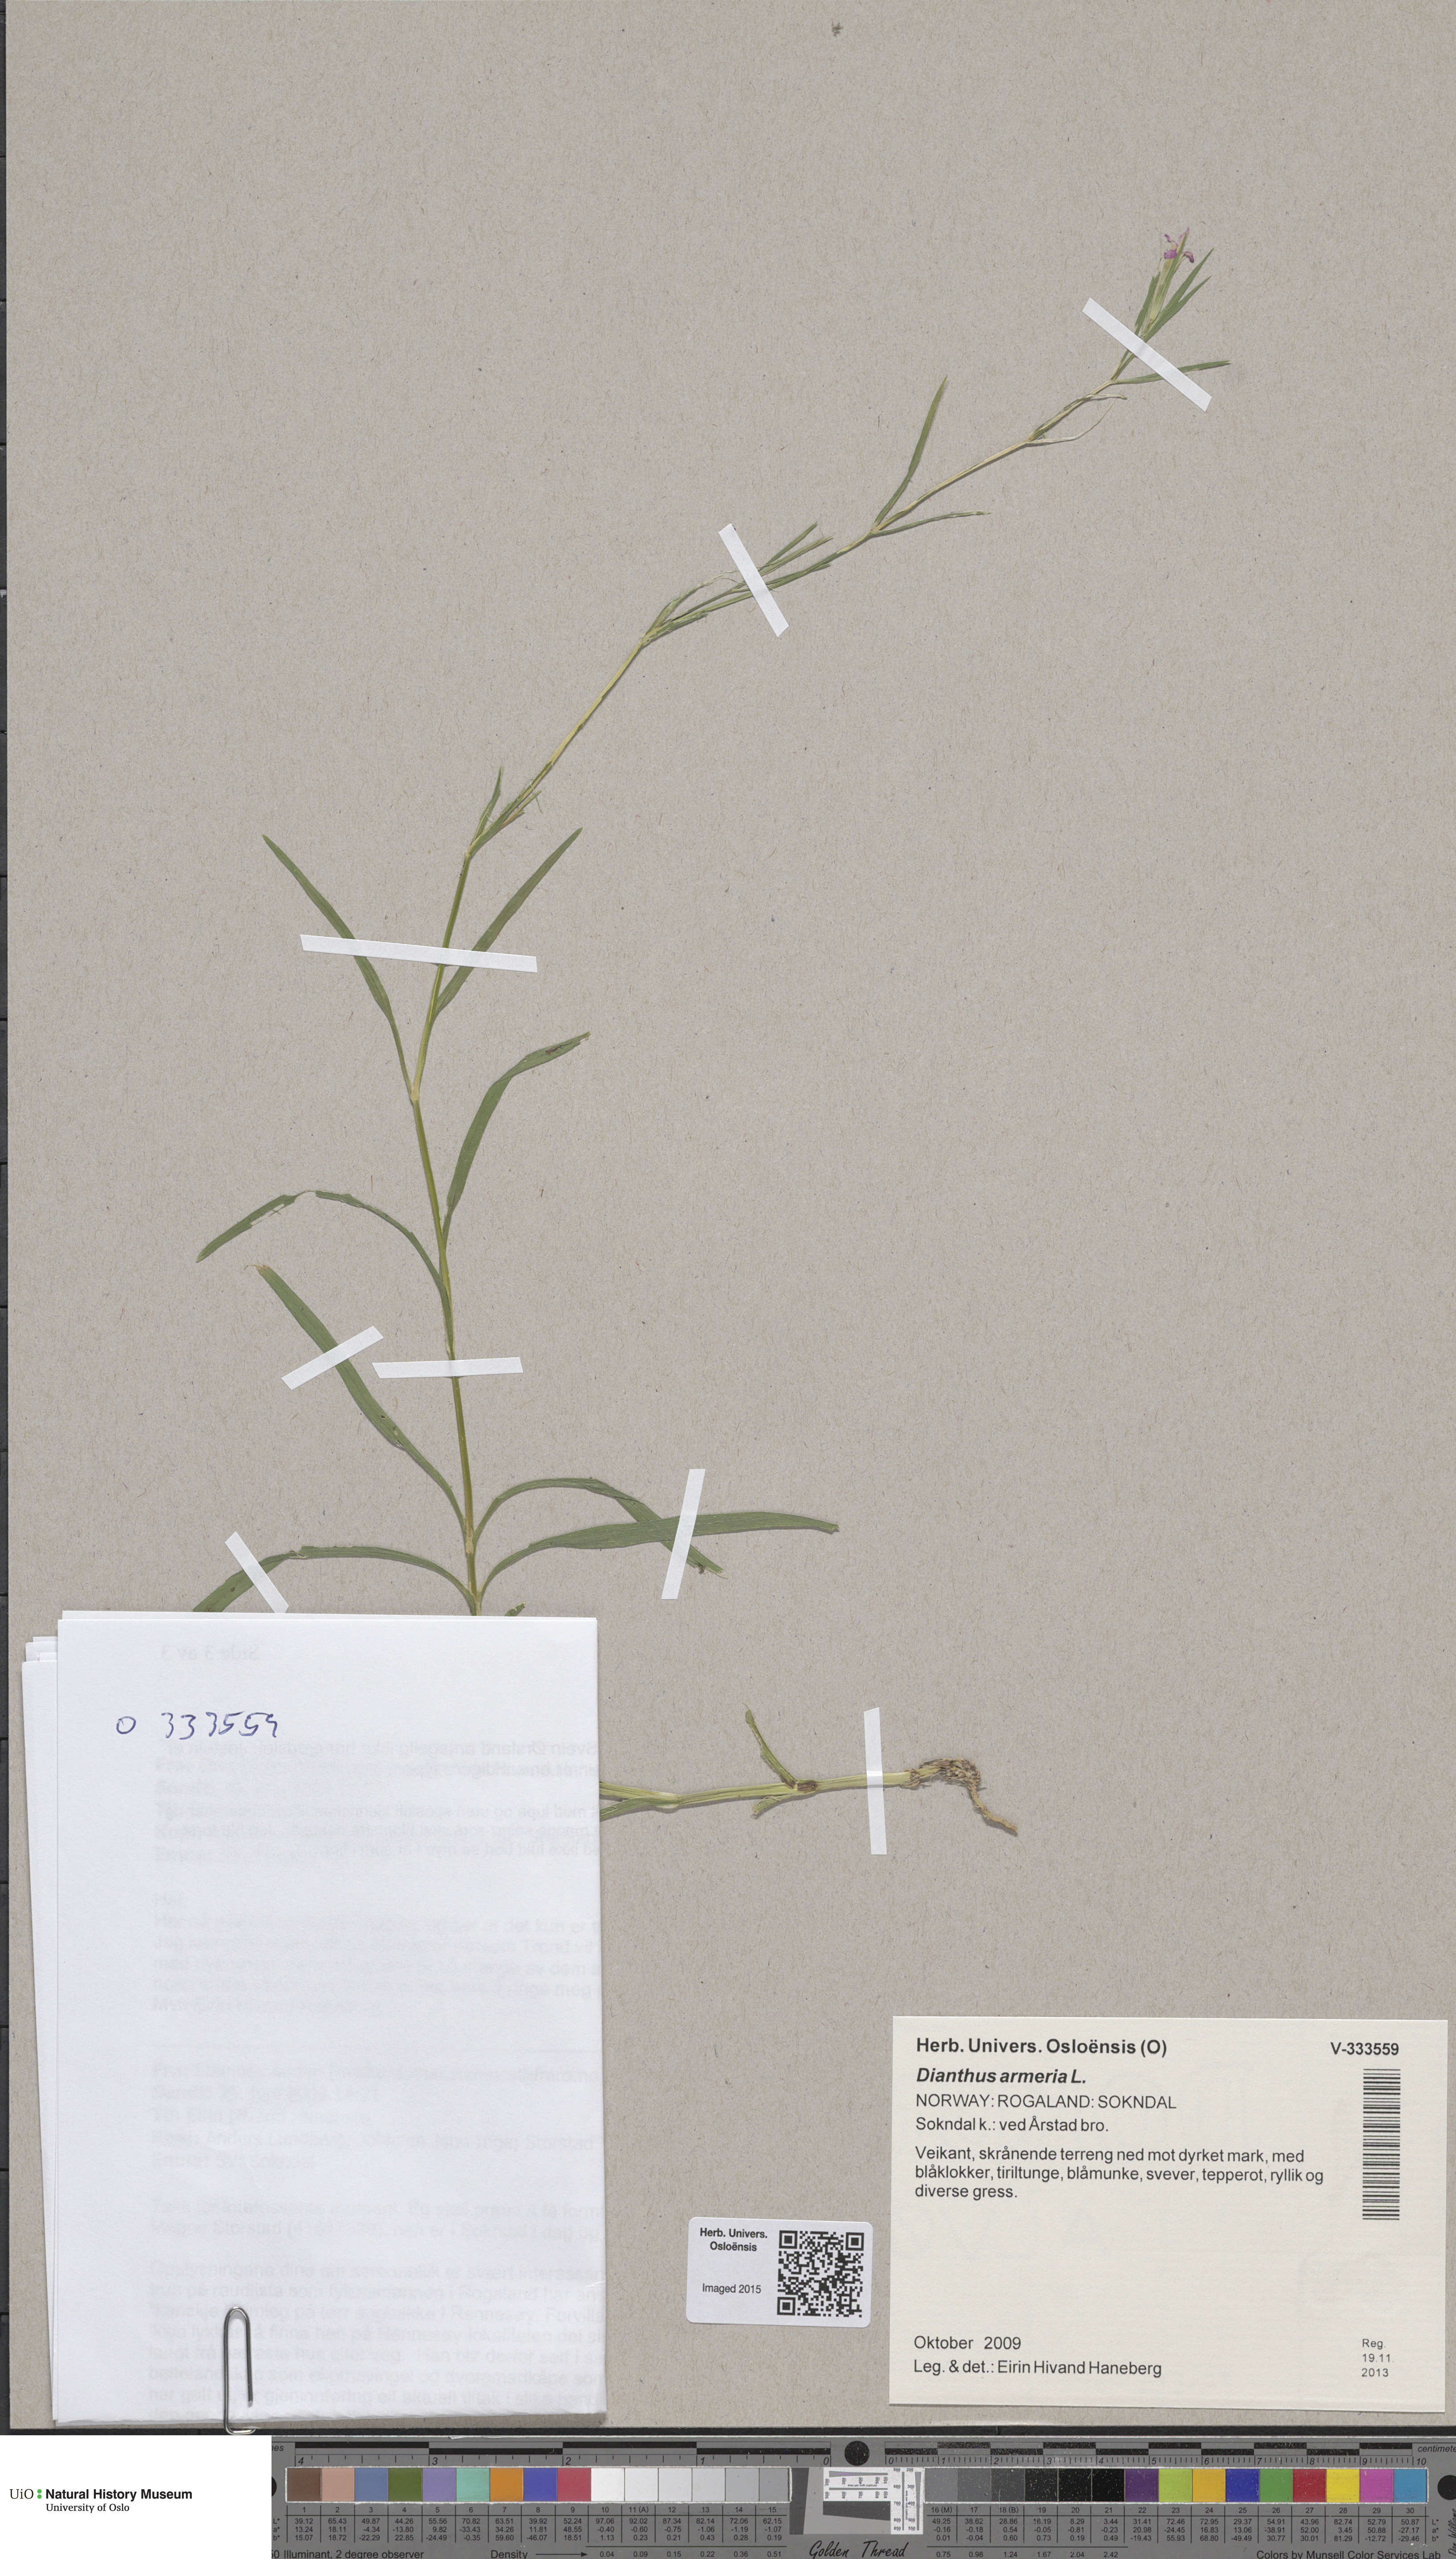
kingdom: Plantae
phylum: Tracheophyta
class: Magnoliopsida
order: Caryophyllales
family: Caryophyllaceae
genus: Dianthus
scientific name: Dianthus armeria
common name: Deptford pink
